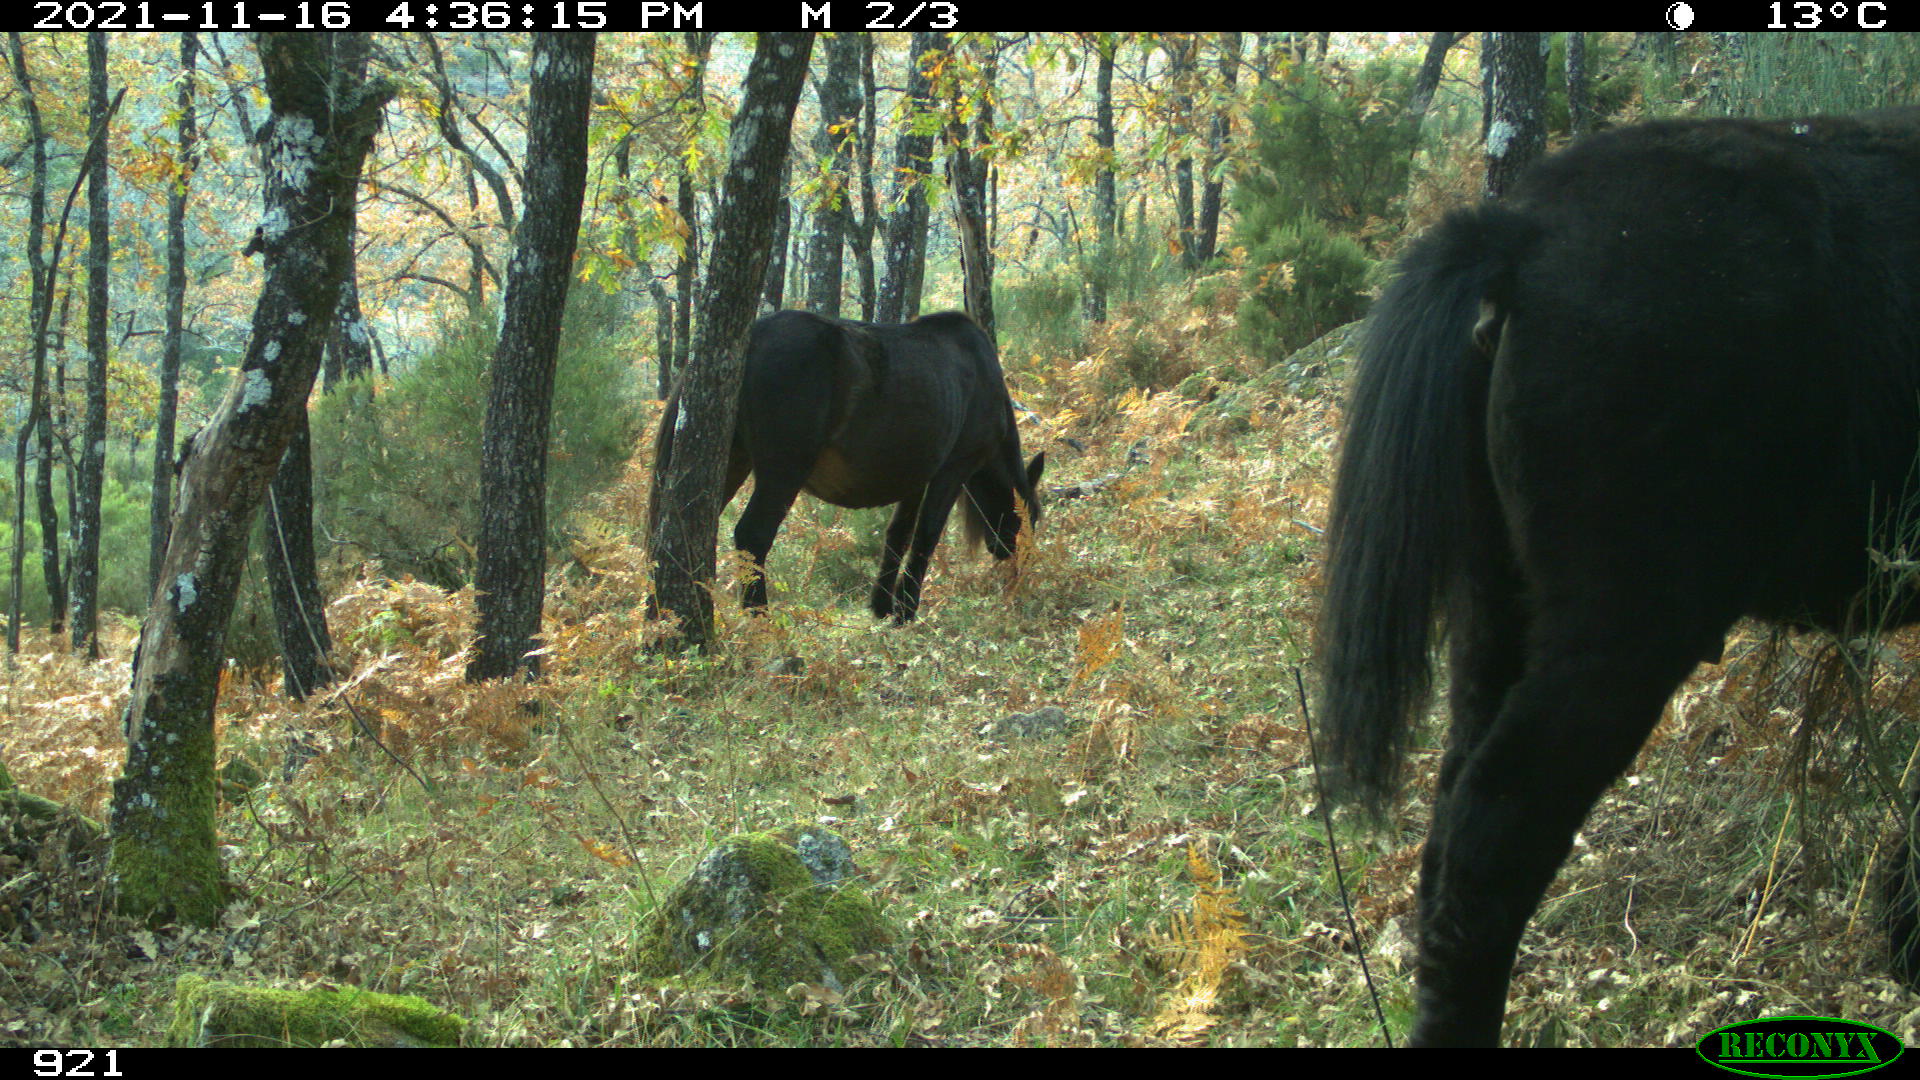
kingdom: Animalia
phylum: Chordata
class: Mammalia
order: Perissodactyla
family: Equidae
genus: Equus
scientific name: Equus caballus
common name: Horse
